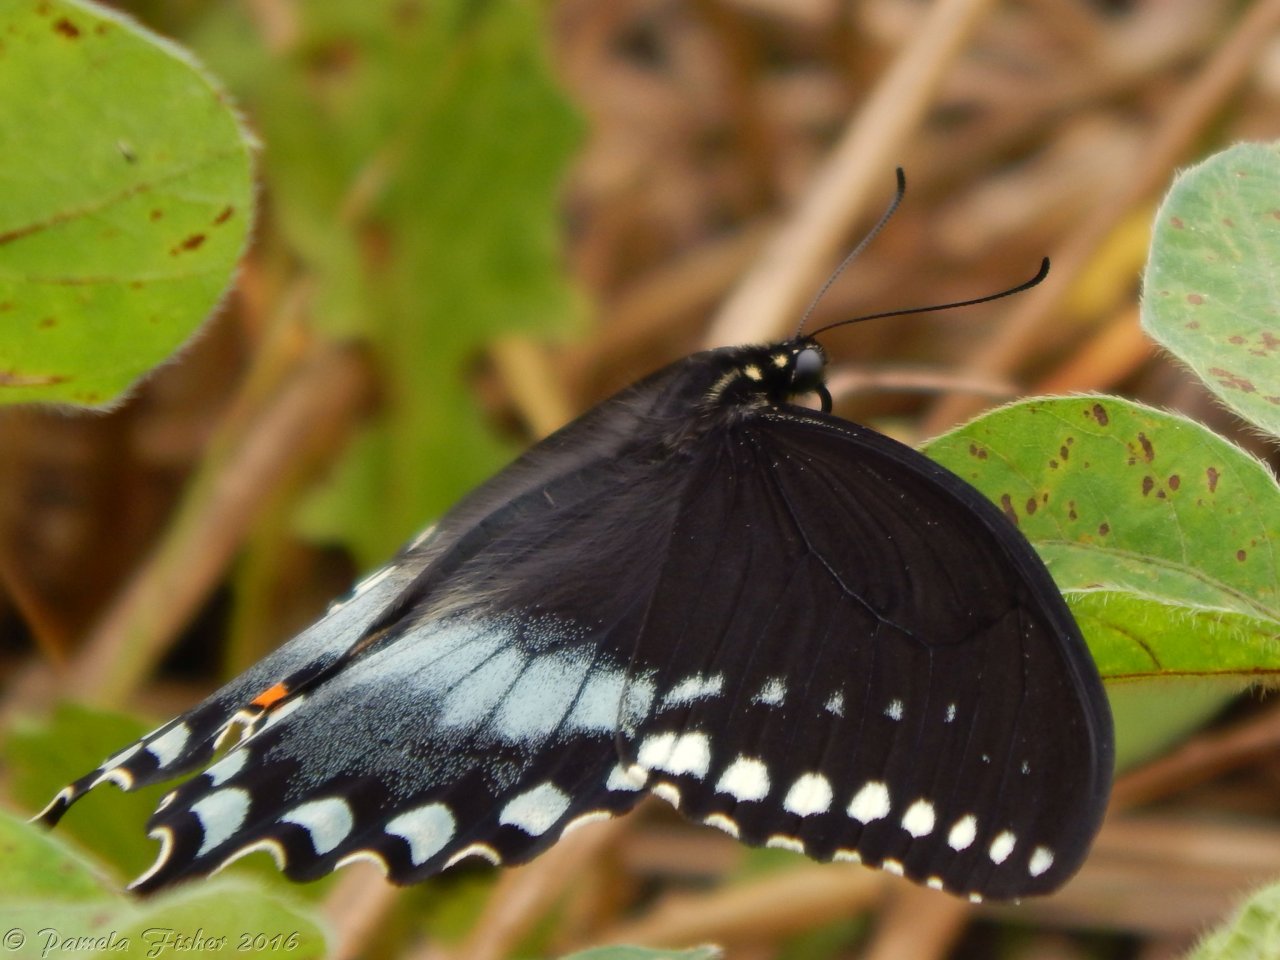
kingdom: Animalia
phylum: Arthropoda
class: Insecta
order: Lepidoptera
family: Papilionidae
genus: Pterourus
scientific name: Pterourus troilus
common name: Spicebush Swallowtail
